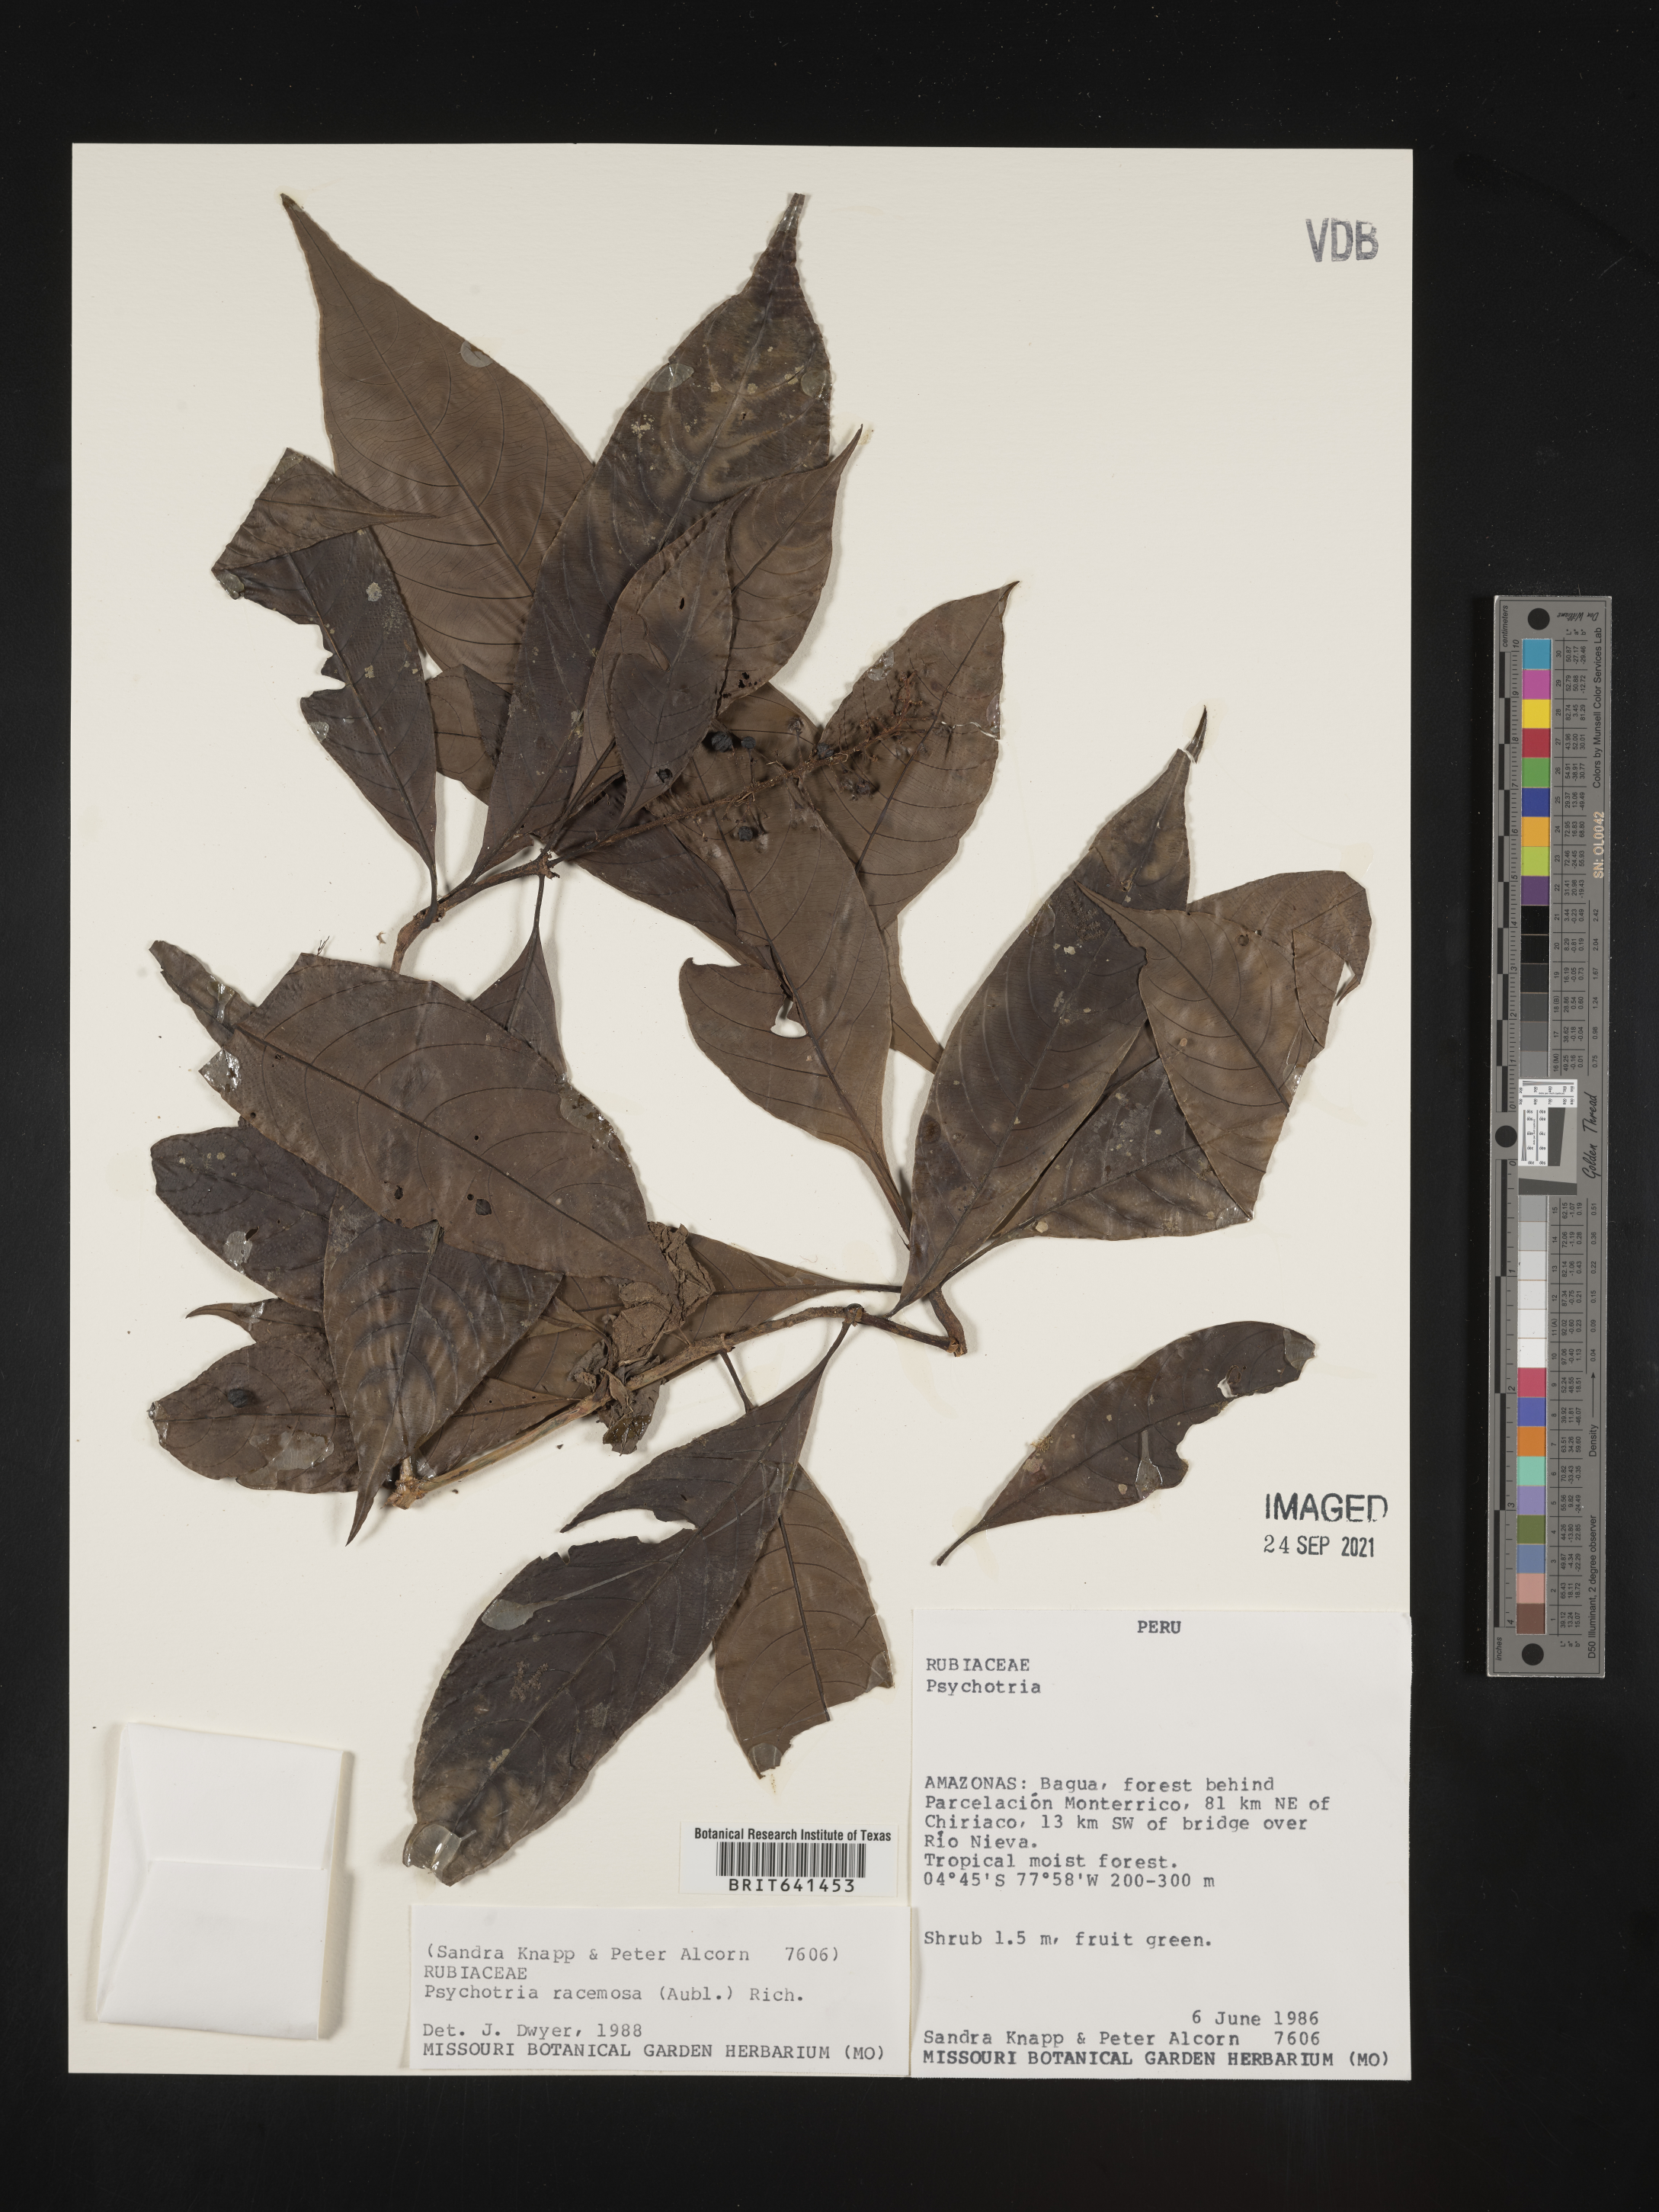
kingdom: Plantae
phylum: Tracheophyta
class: Magnoliopsida
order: Gentianales
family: Rubiaceae
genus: Psychotria
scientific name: Psychotria
